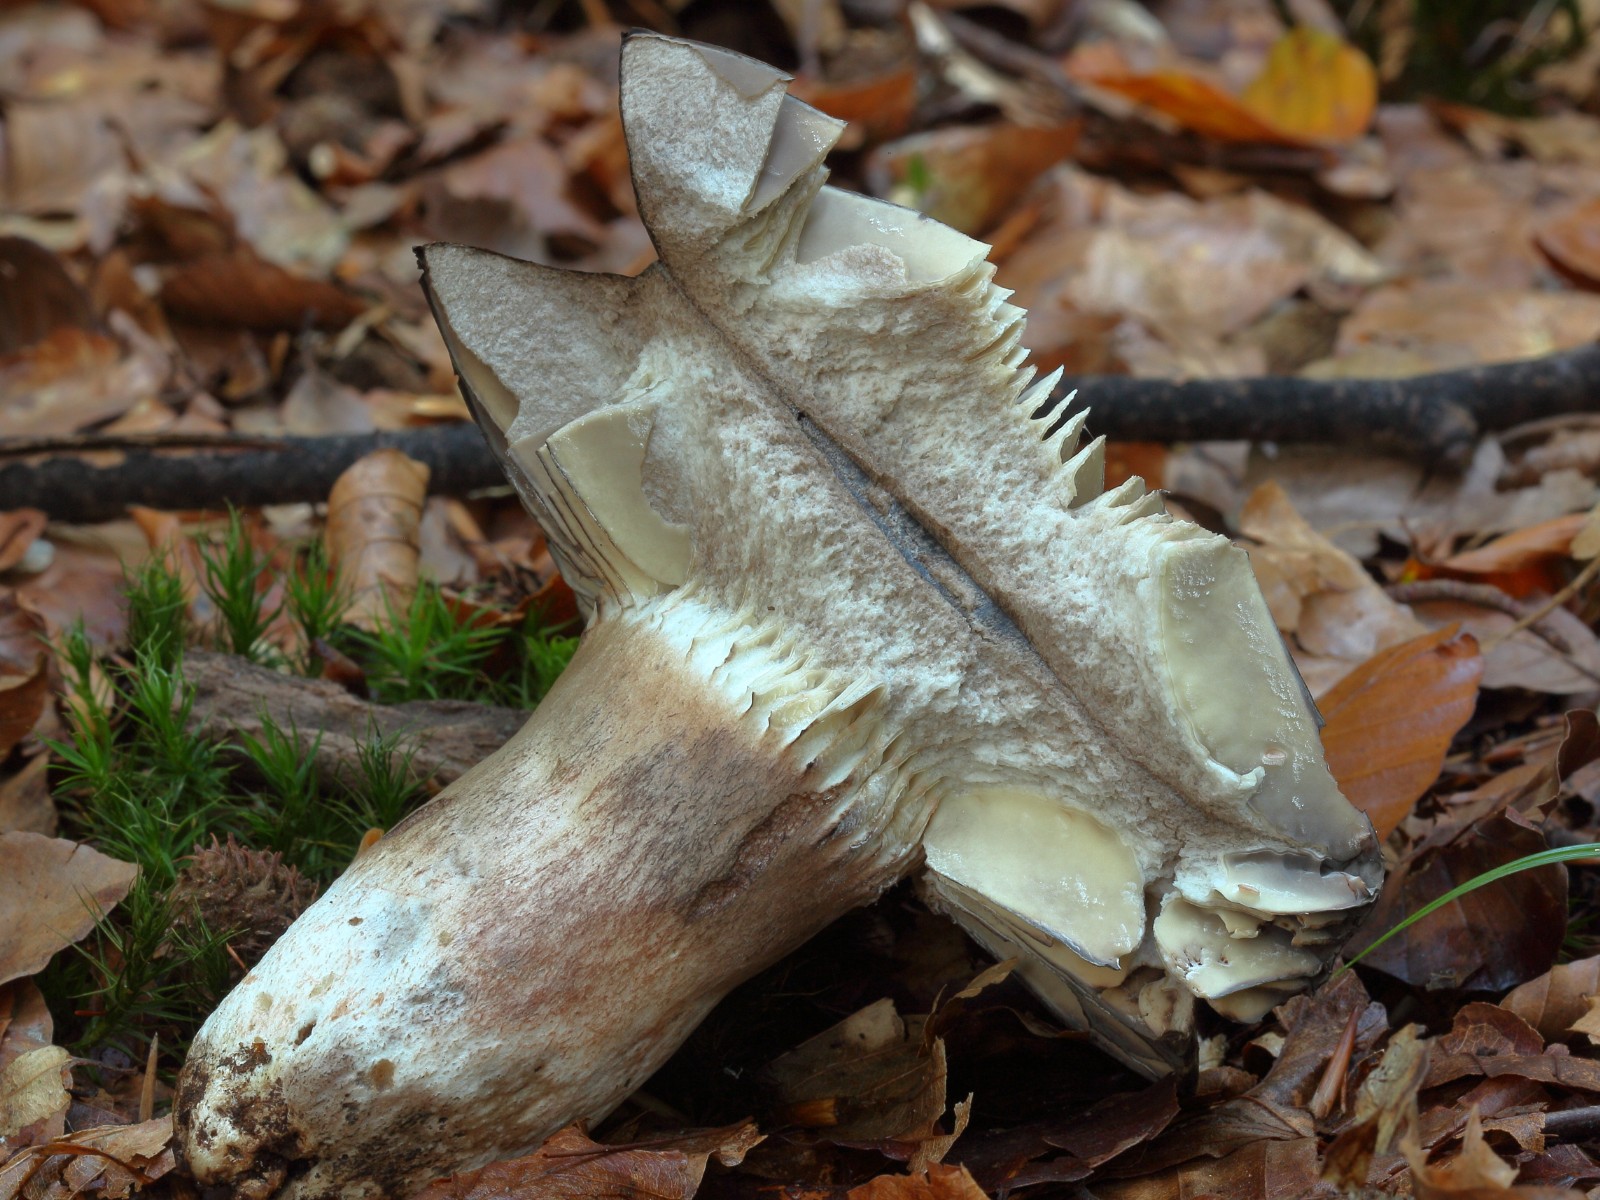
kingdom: Fungi
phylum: Basidiomycota
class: Agaricomycetes
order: Russulales
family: Russulaceae
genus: Russula
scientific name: Russula adusta
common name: sværtende skørhat
